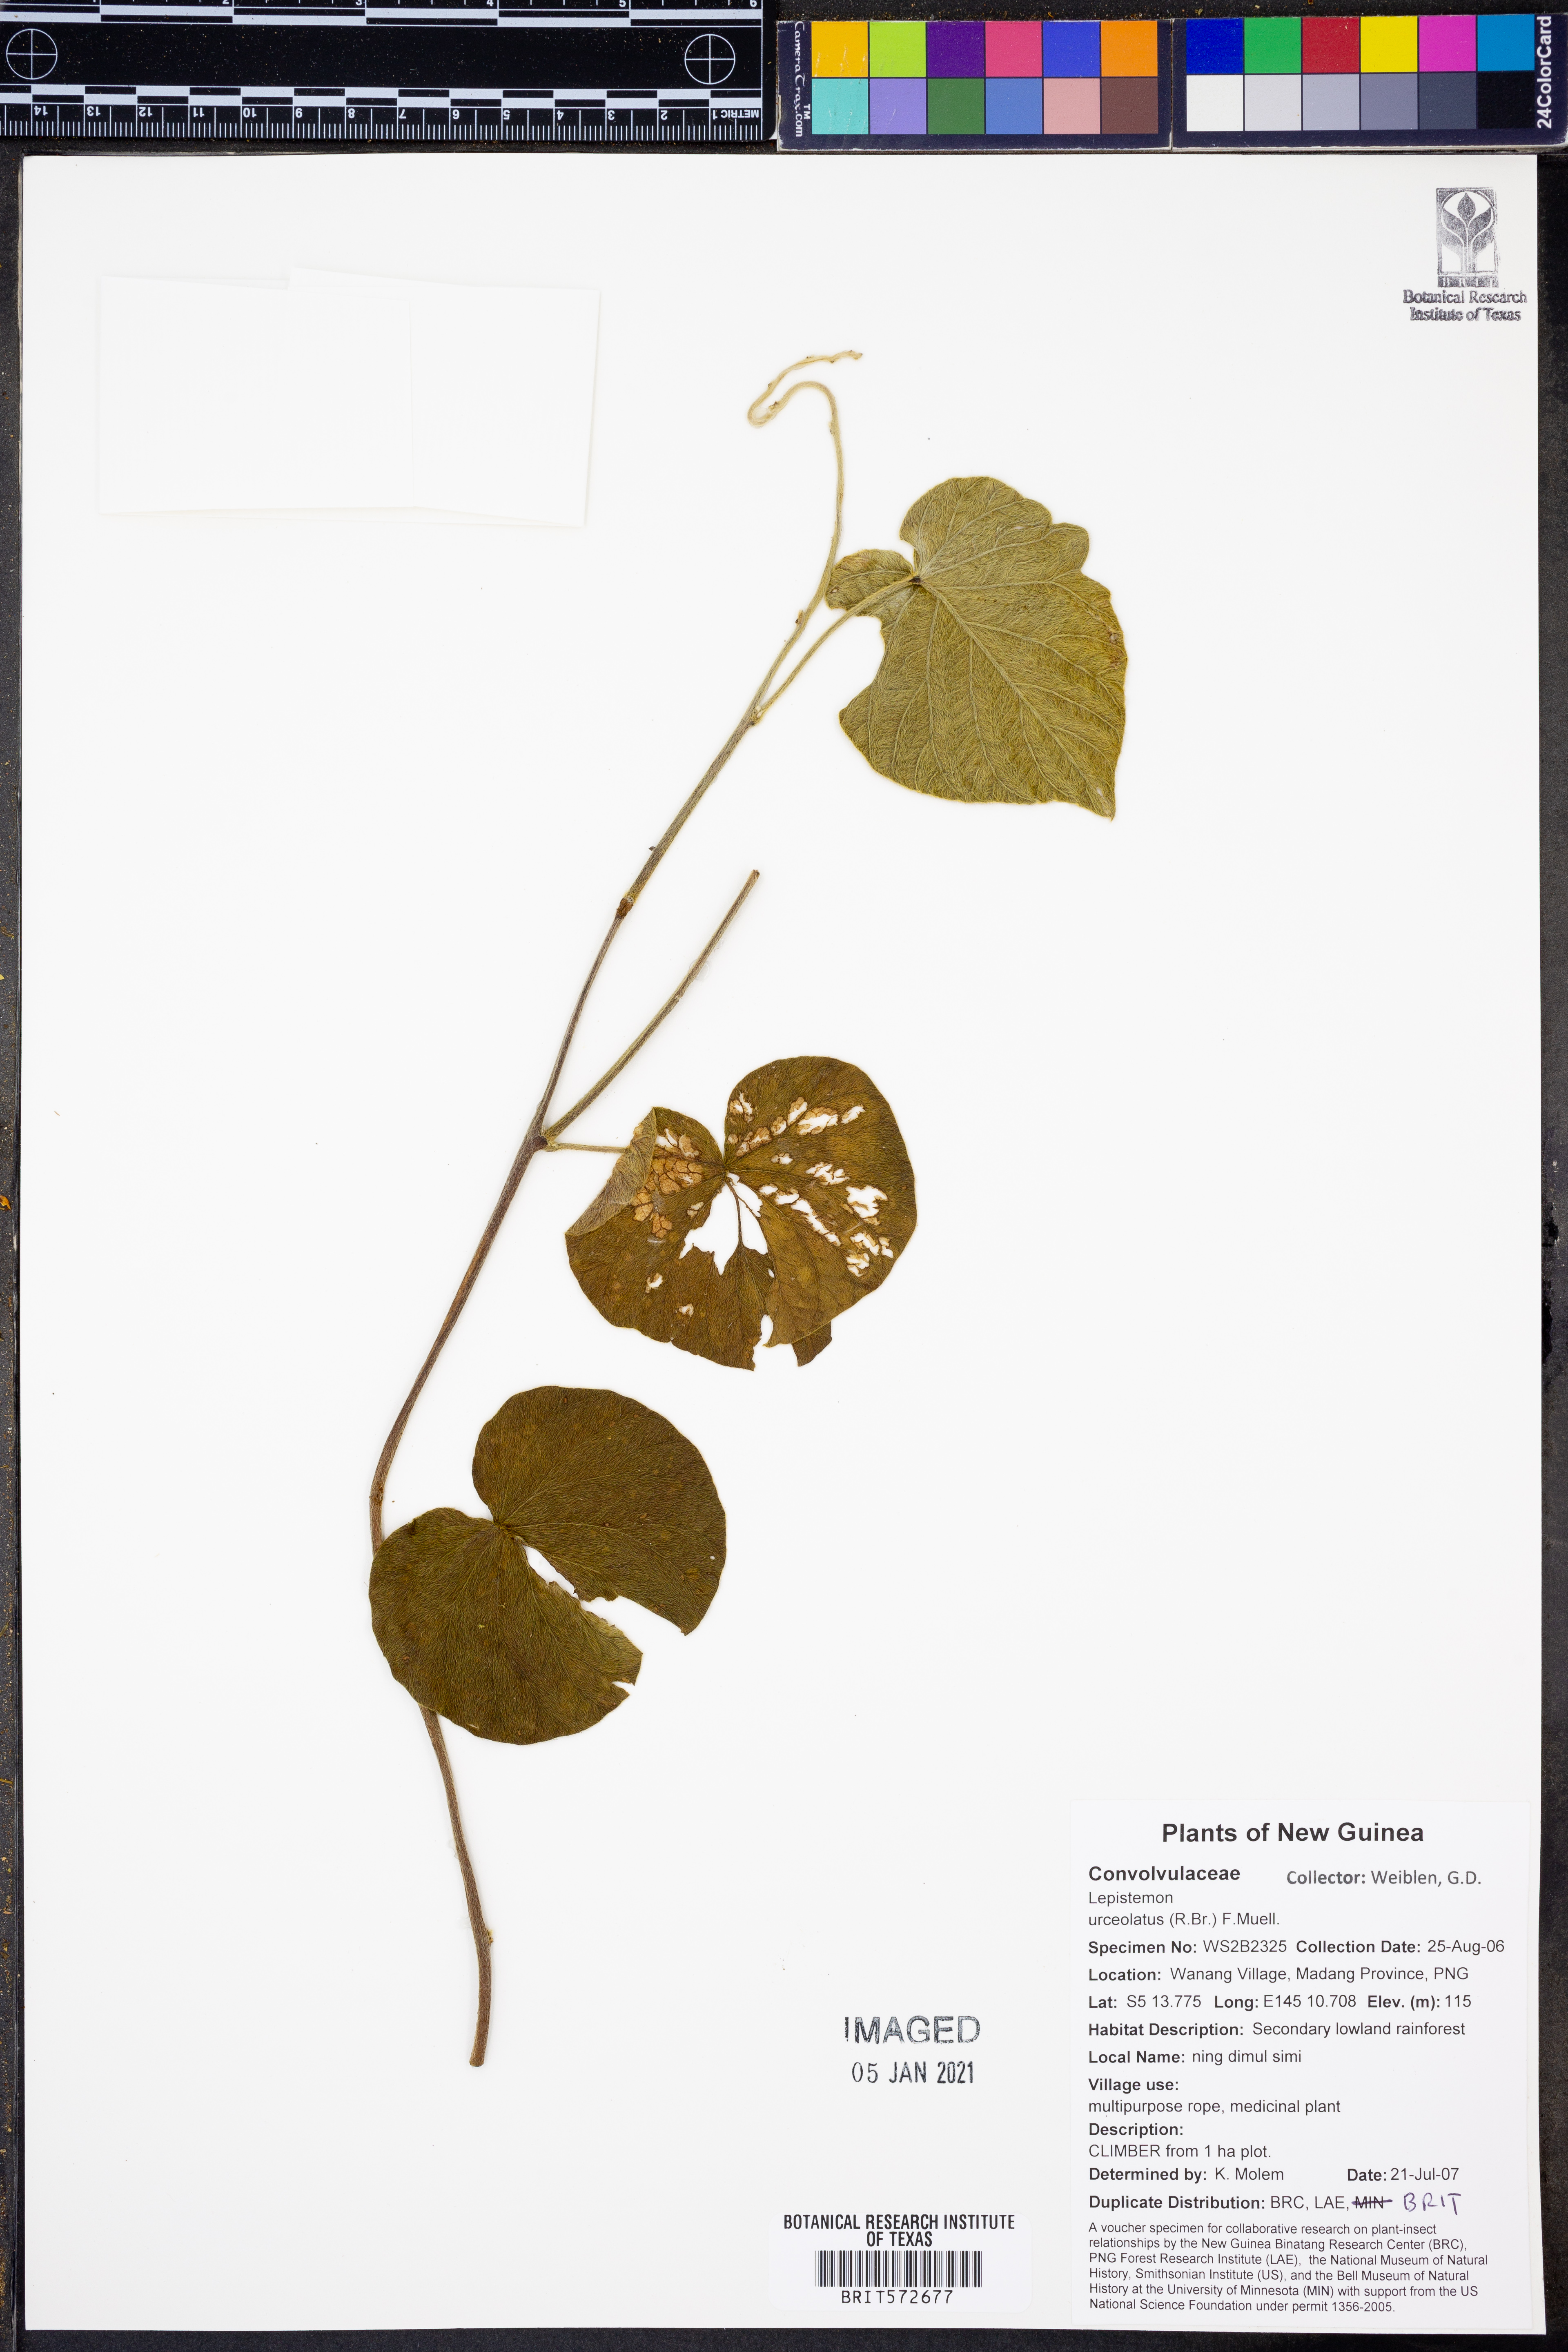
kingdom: Plantae
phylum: Tracheophyta
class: Magnoliopsida
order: Solanales
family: Convolvulaceae
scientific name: Convolvulaceae
